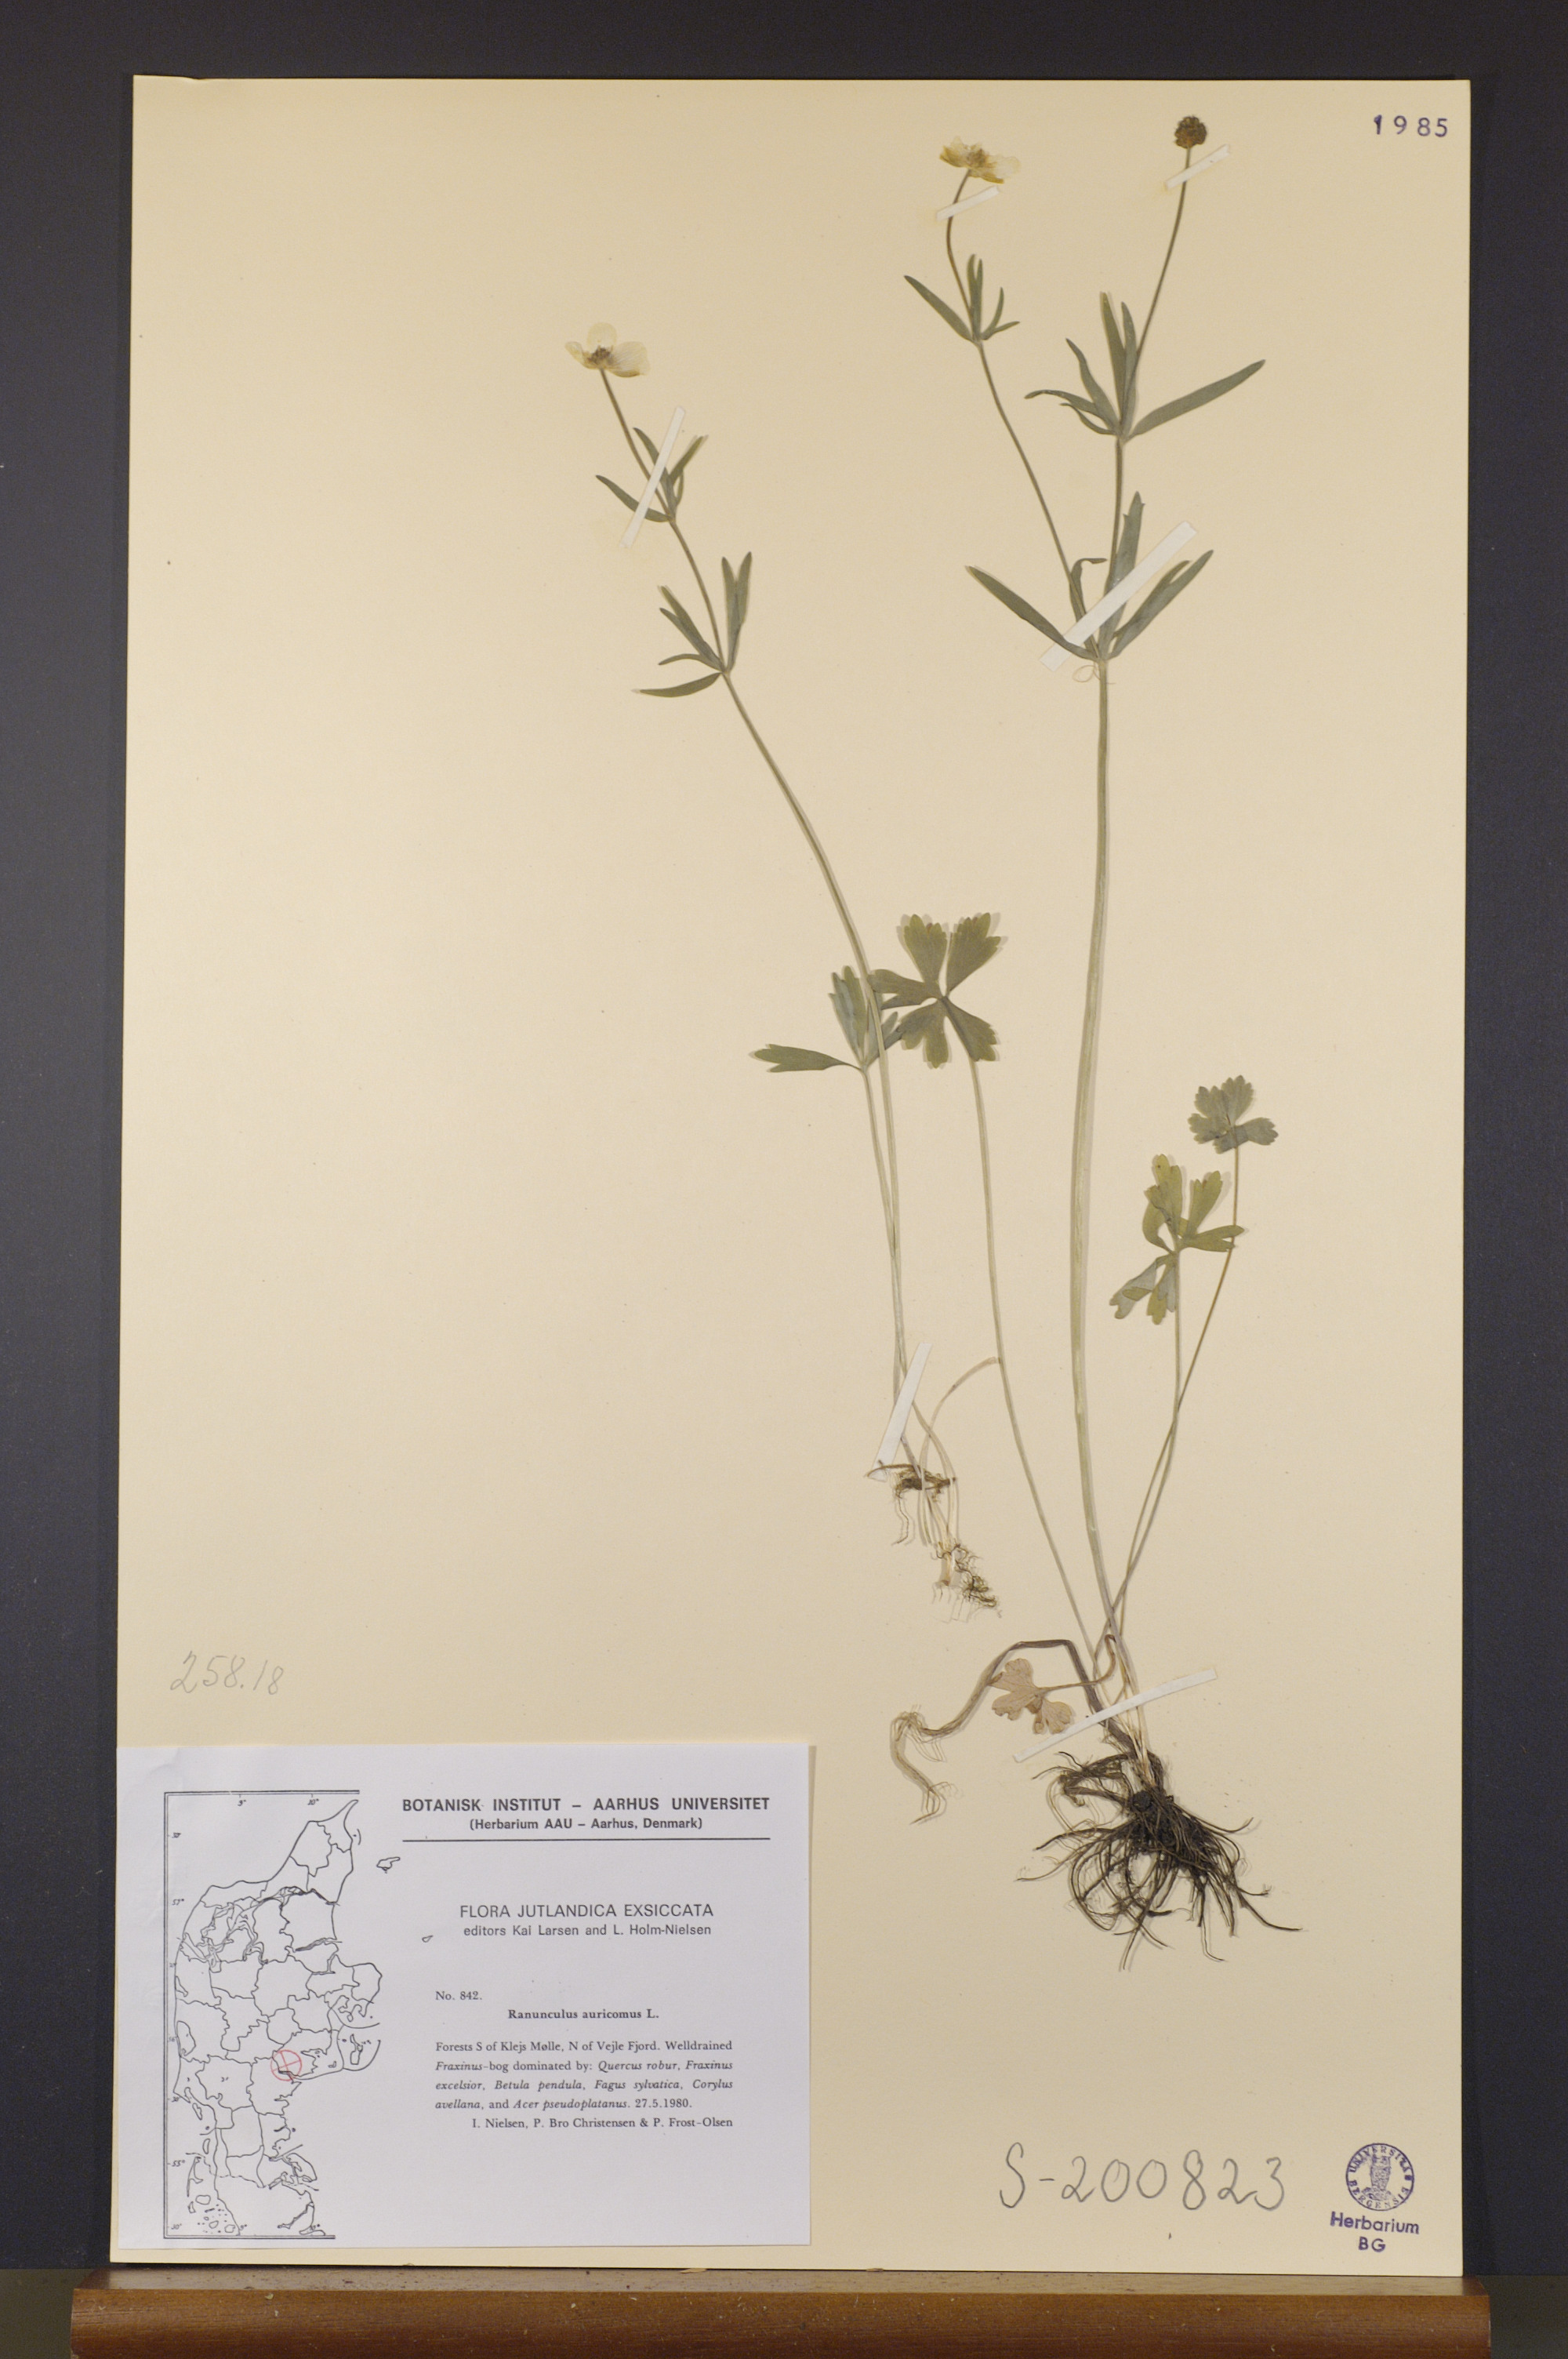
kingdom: Plantae
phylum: Tracheophyta
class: Magnoliopsida
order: Ranunculales
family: Ranunculaceae
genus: Ranunculus
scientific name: Ranunculus auricomus
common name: Goldilocks buttercup
